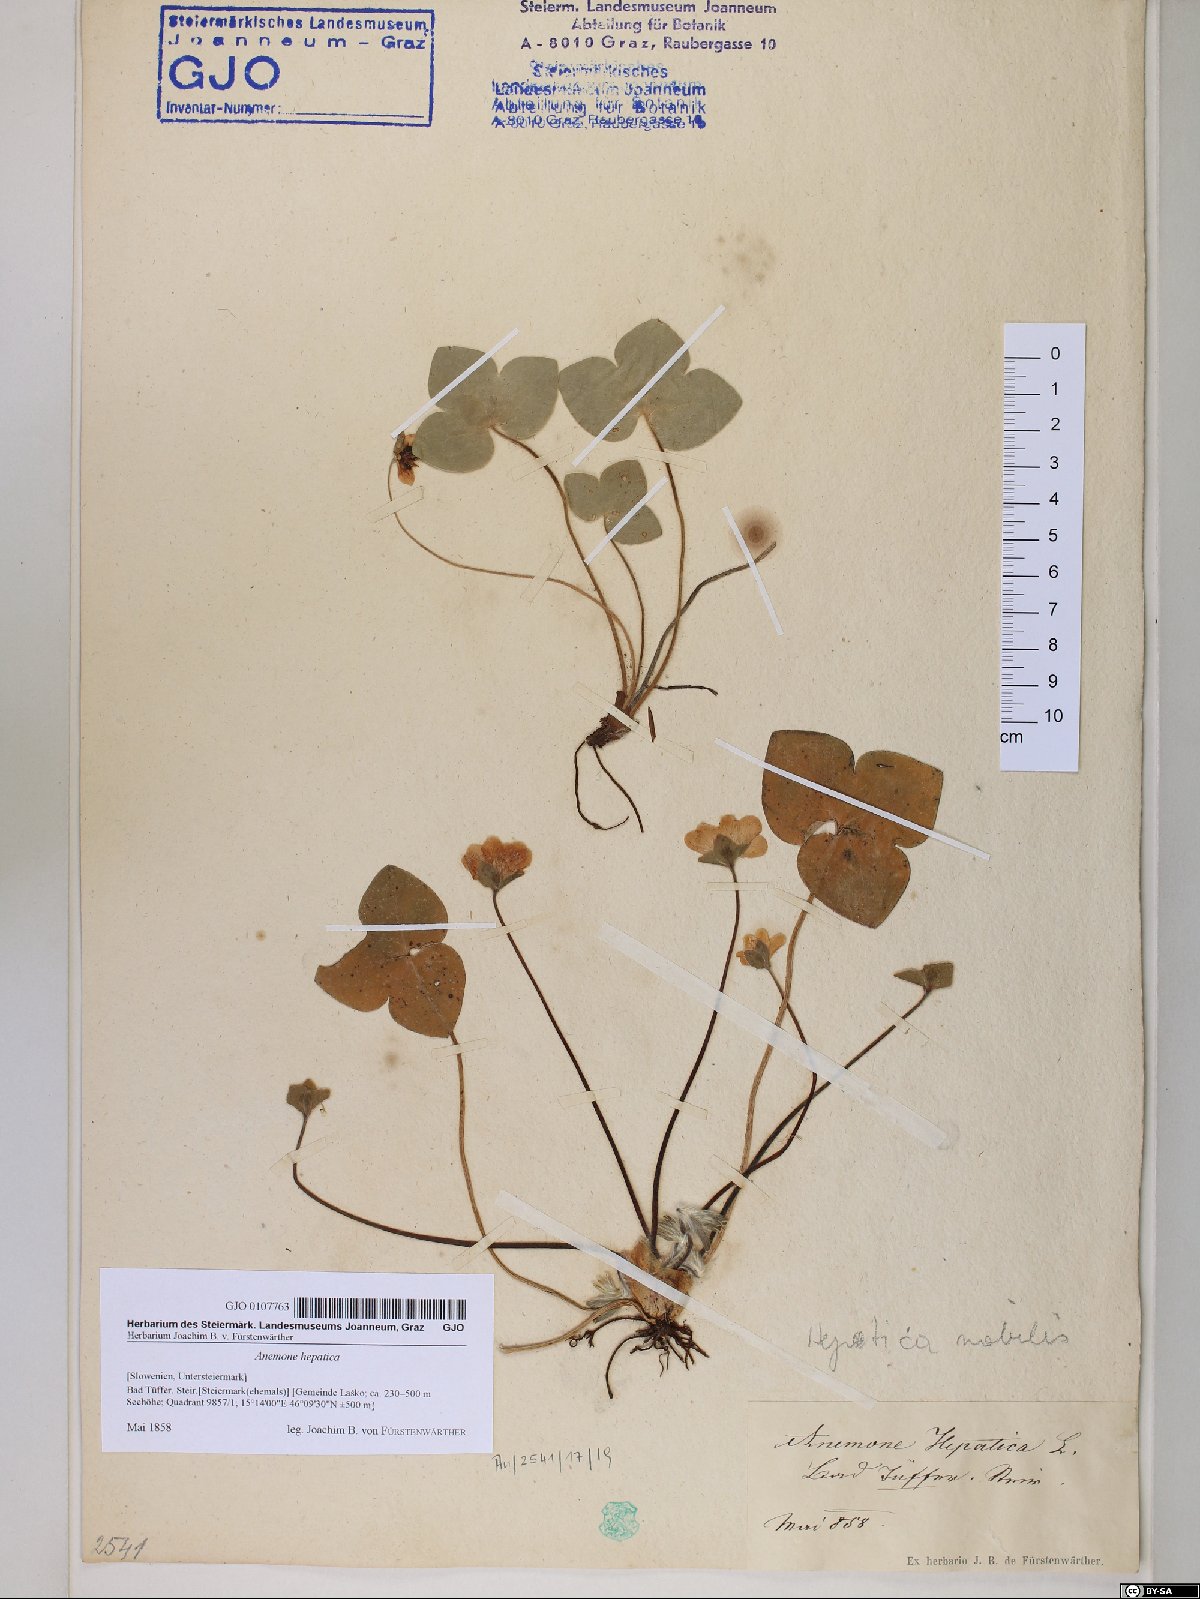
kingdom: Plantae
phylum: Tracheophyta
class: Magnoliopsida
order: Ranunculales
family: Ranunculaceae
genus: Hepatica
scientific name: Hepatica nobilis
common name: Liverleaf
